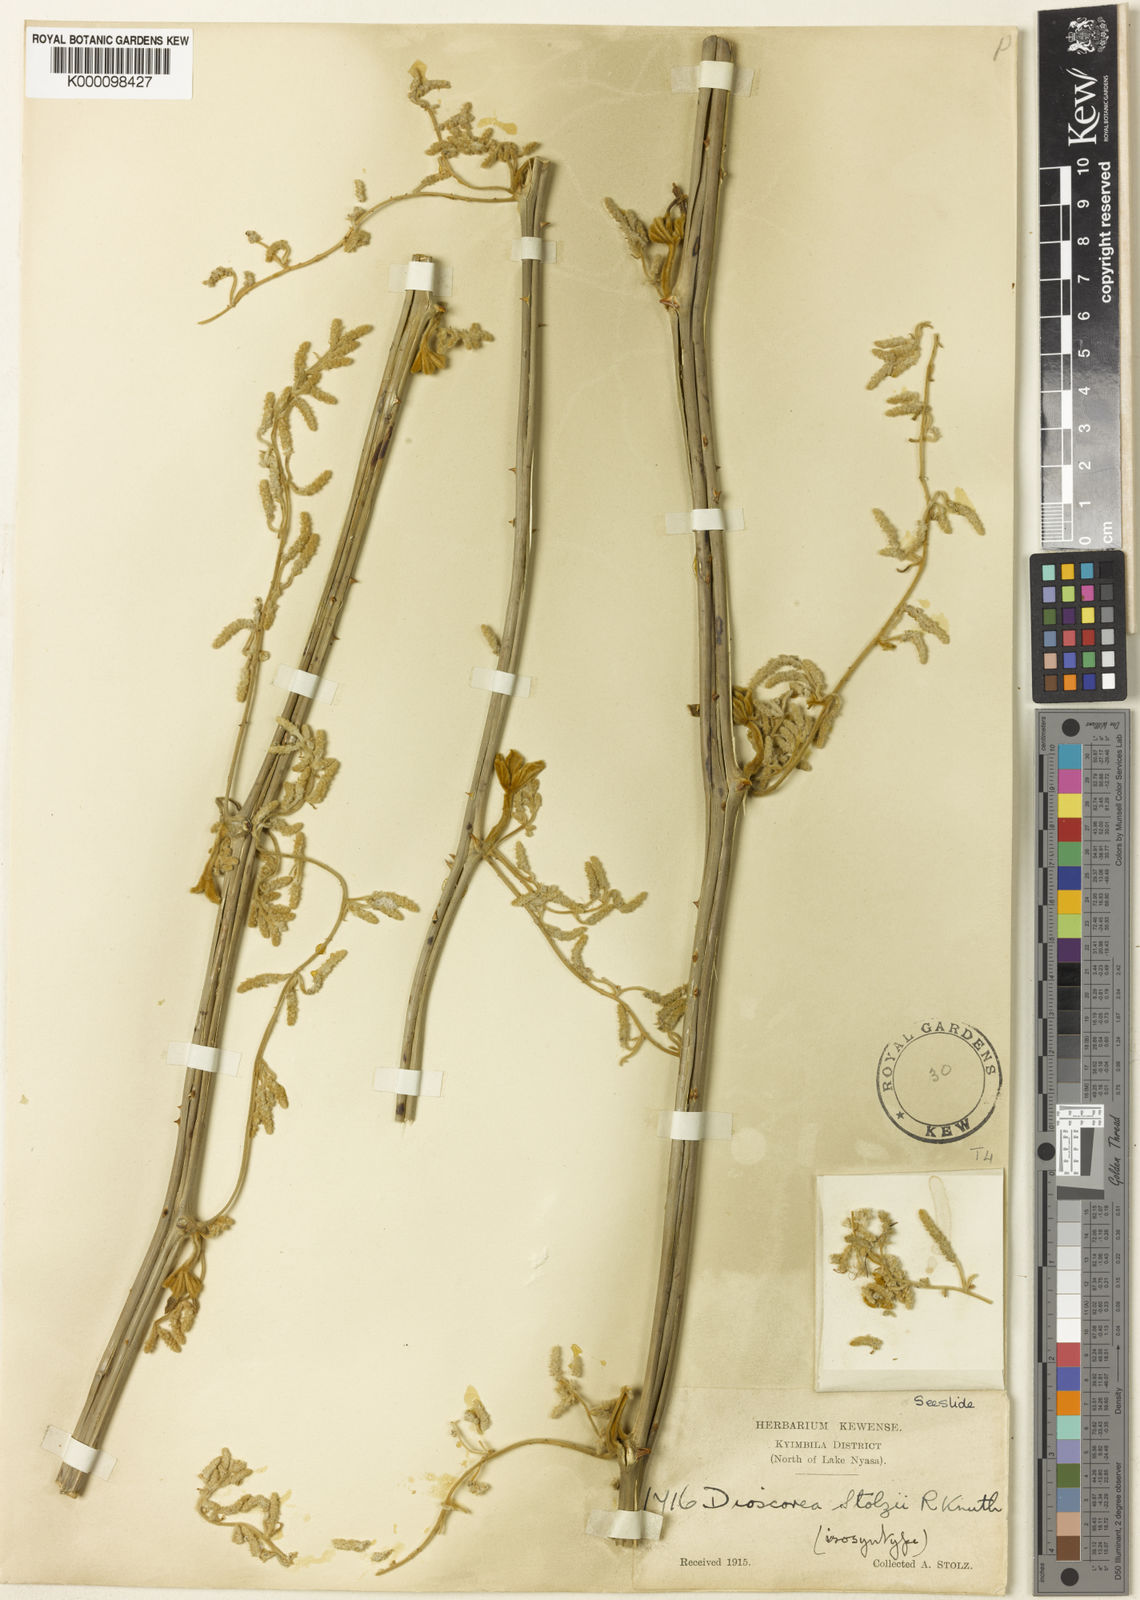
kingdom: Plantae
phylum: Tracheophyta
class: Liliopsida
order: Dioscoreales
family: Dioscoreaceae
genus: Dioscorea
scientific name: Dioscorea cochleariapiculata
